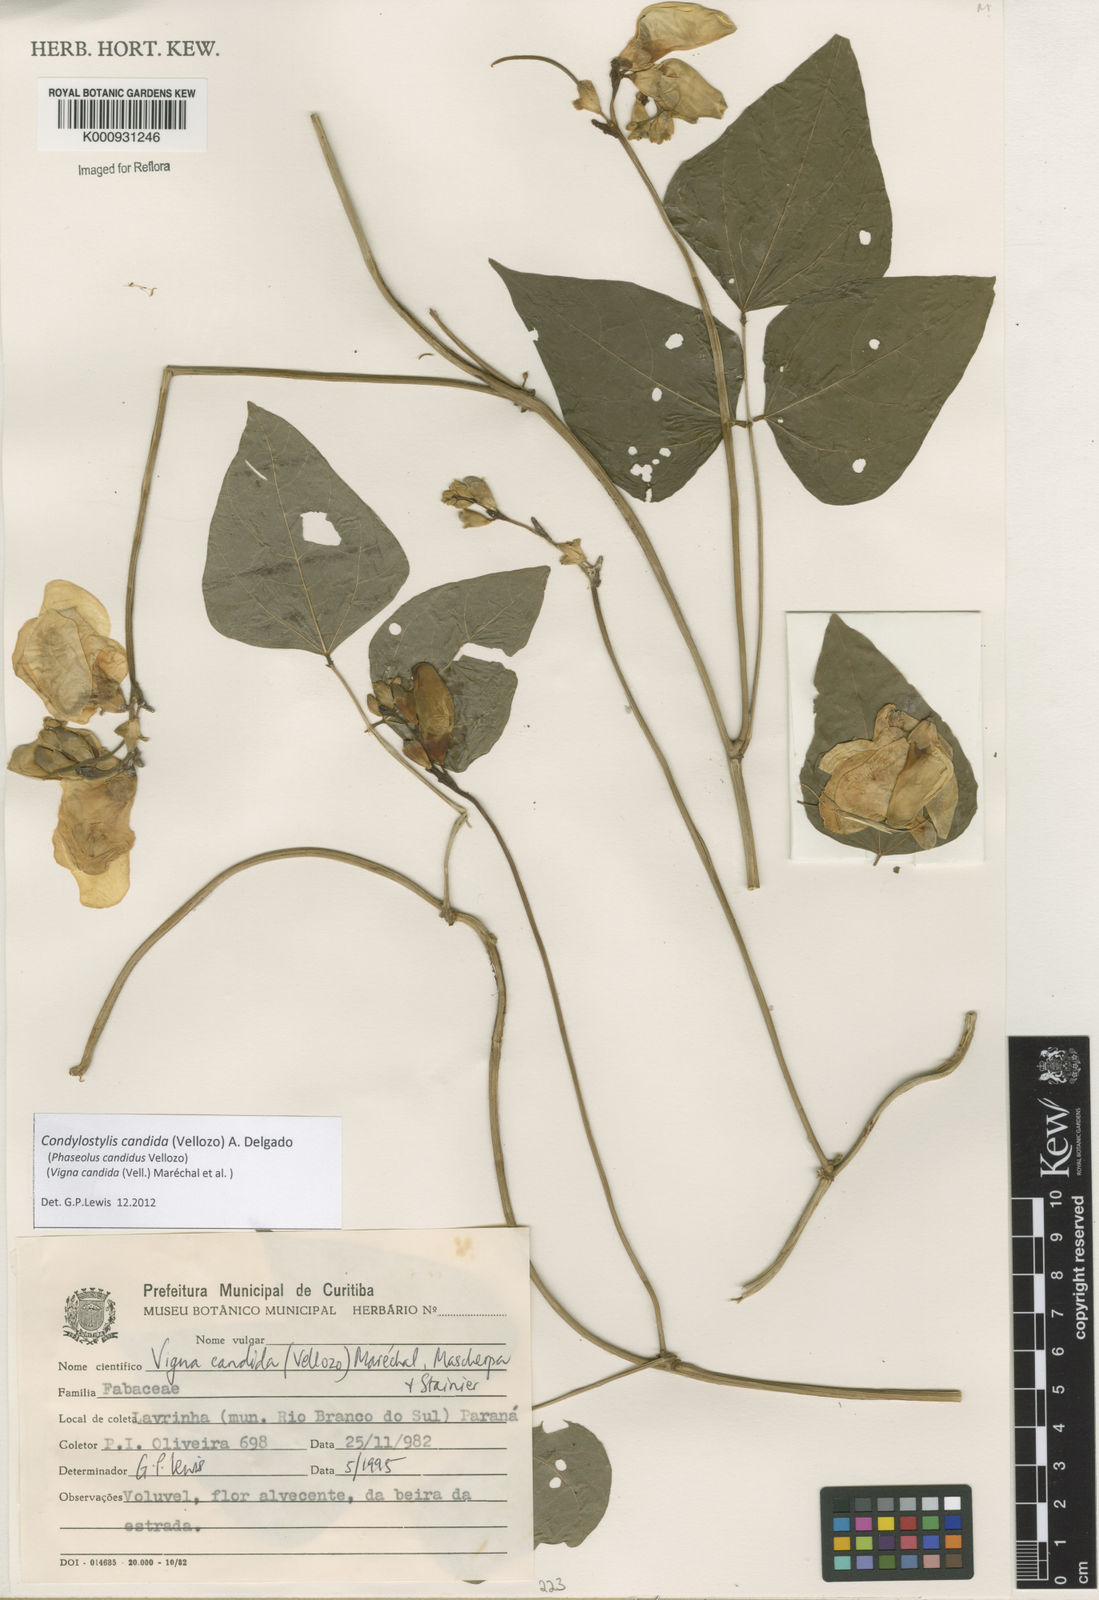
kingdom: Plantae
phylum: Tracheophyta
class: Magnoliopsida
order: Fabales
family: Fabaceae
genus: Condylostylis
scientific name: Condylostylis candida
